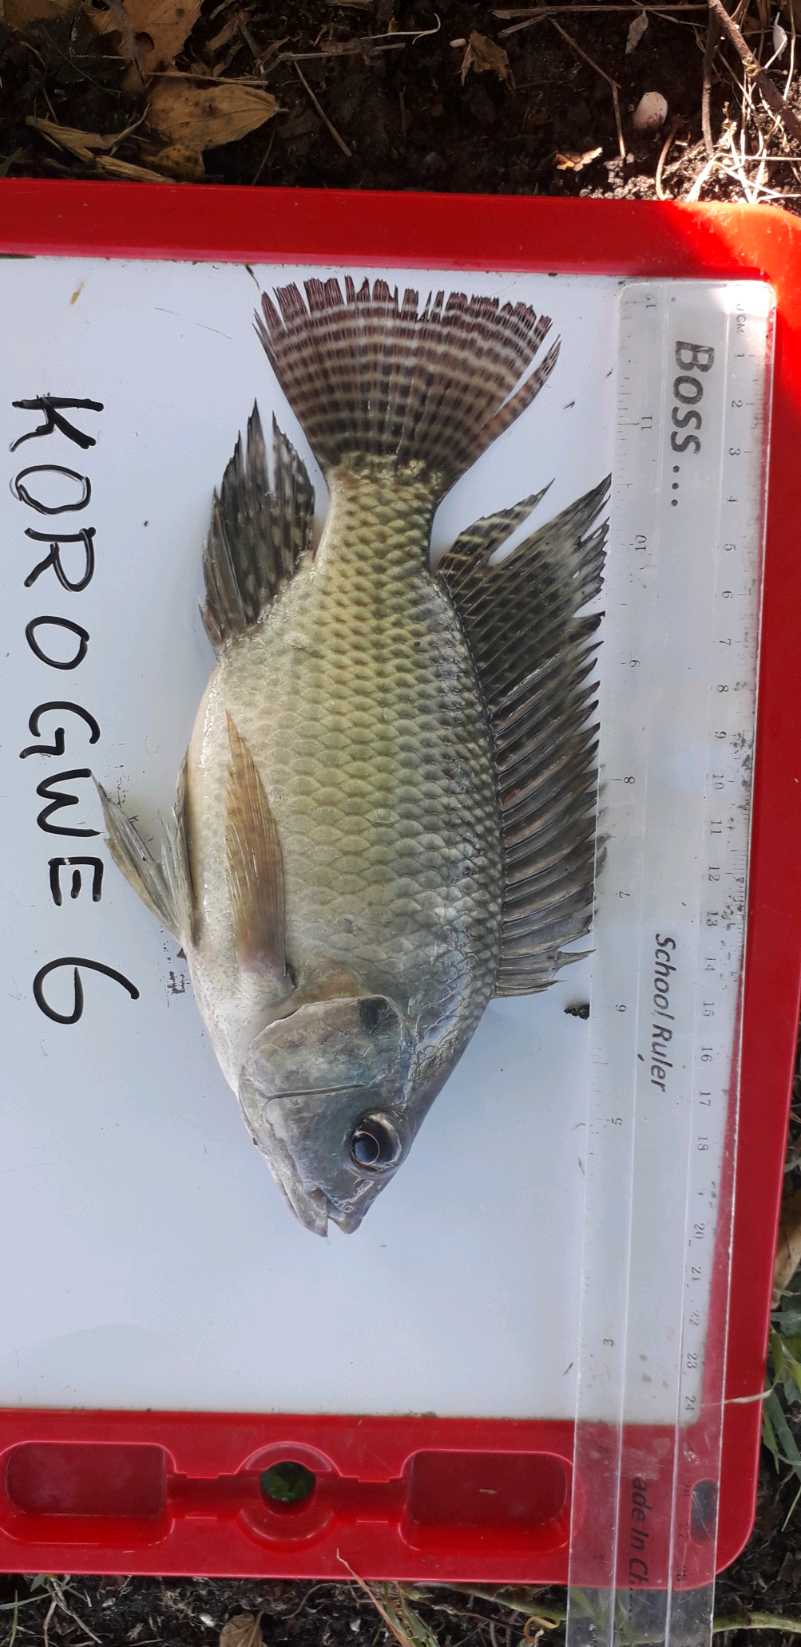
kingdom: Animalia
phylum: Chordata
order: Perciformes
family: Cichlidae
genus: Oreochromis
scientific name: Oreochromis niloticus
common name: Nile tilapia
